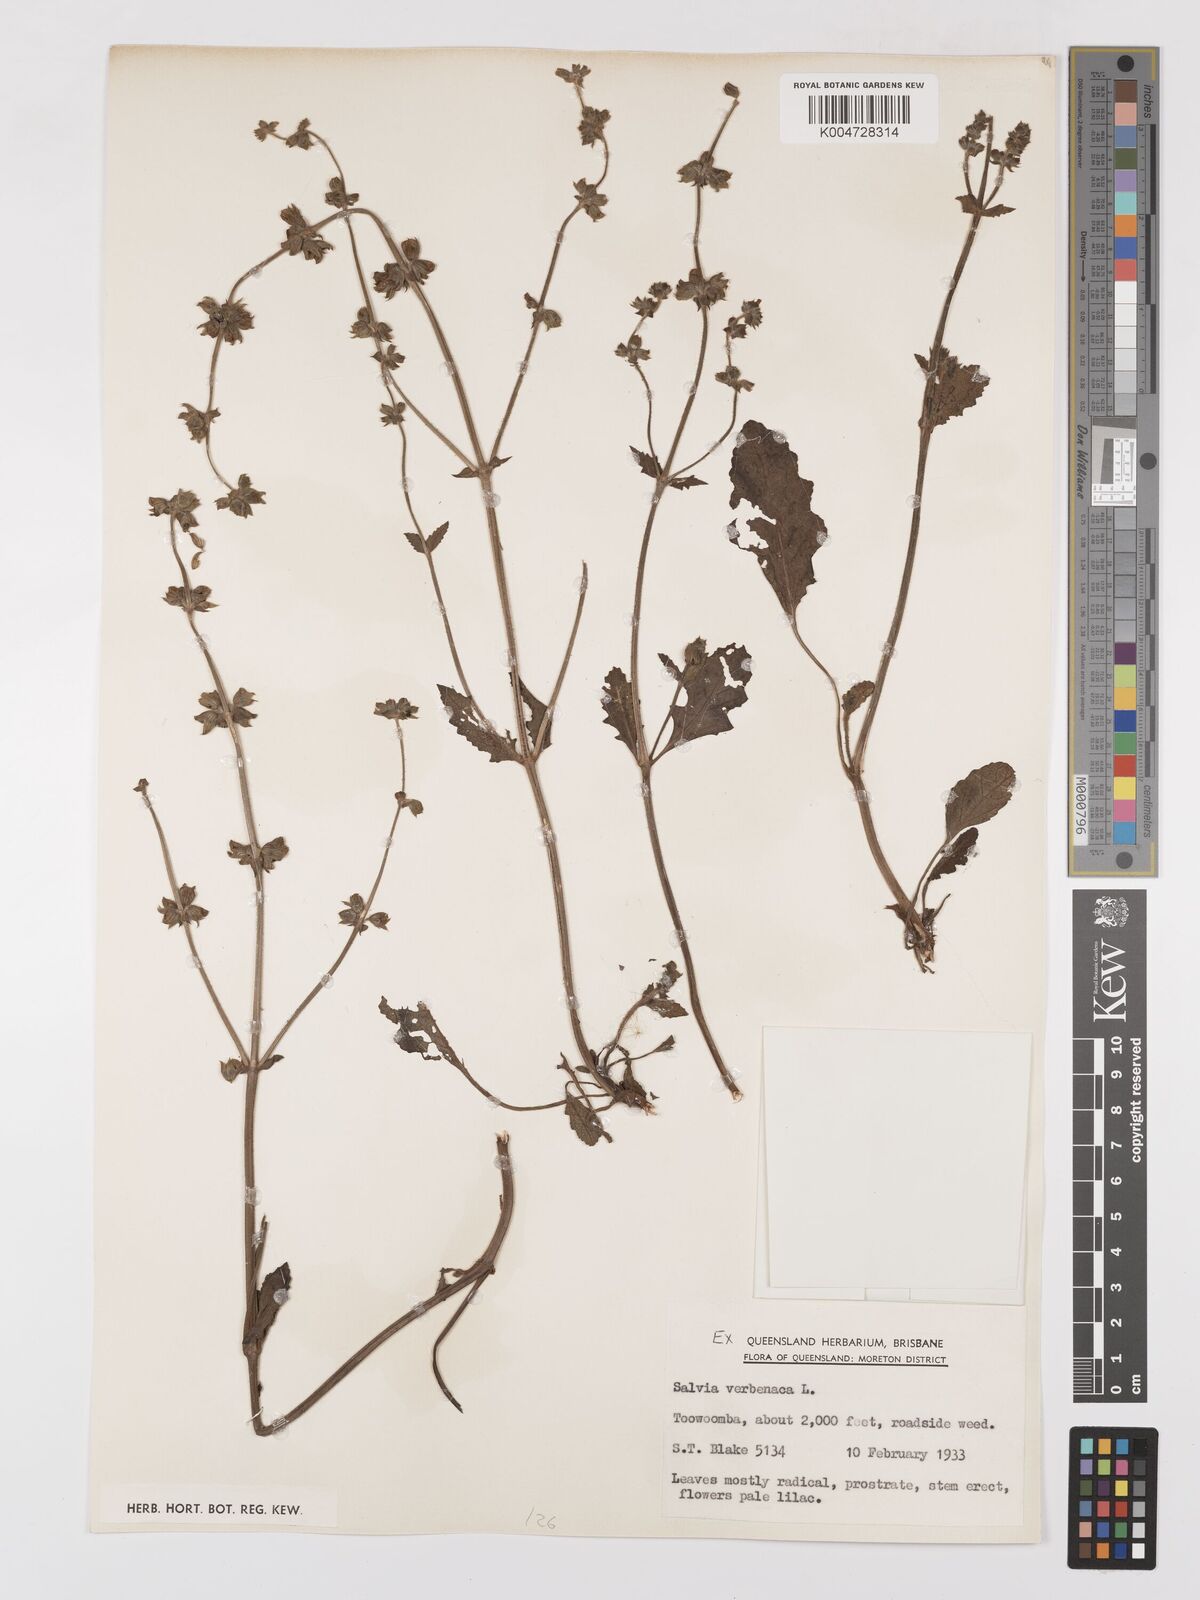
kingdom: Plantae
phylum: Tracheophyta
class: Magnoliopsida
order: Lamiales
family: Lamiaceae
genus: Salvia
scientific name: Salvia verbenaca
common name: Wild clary
